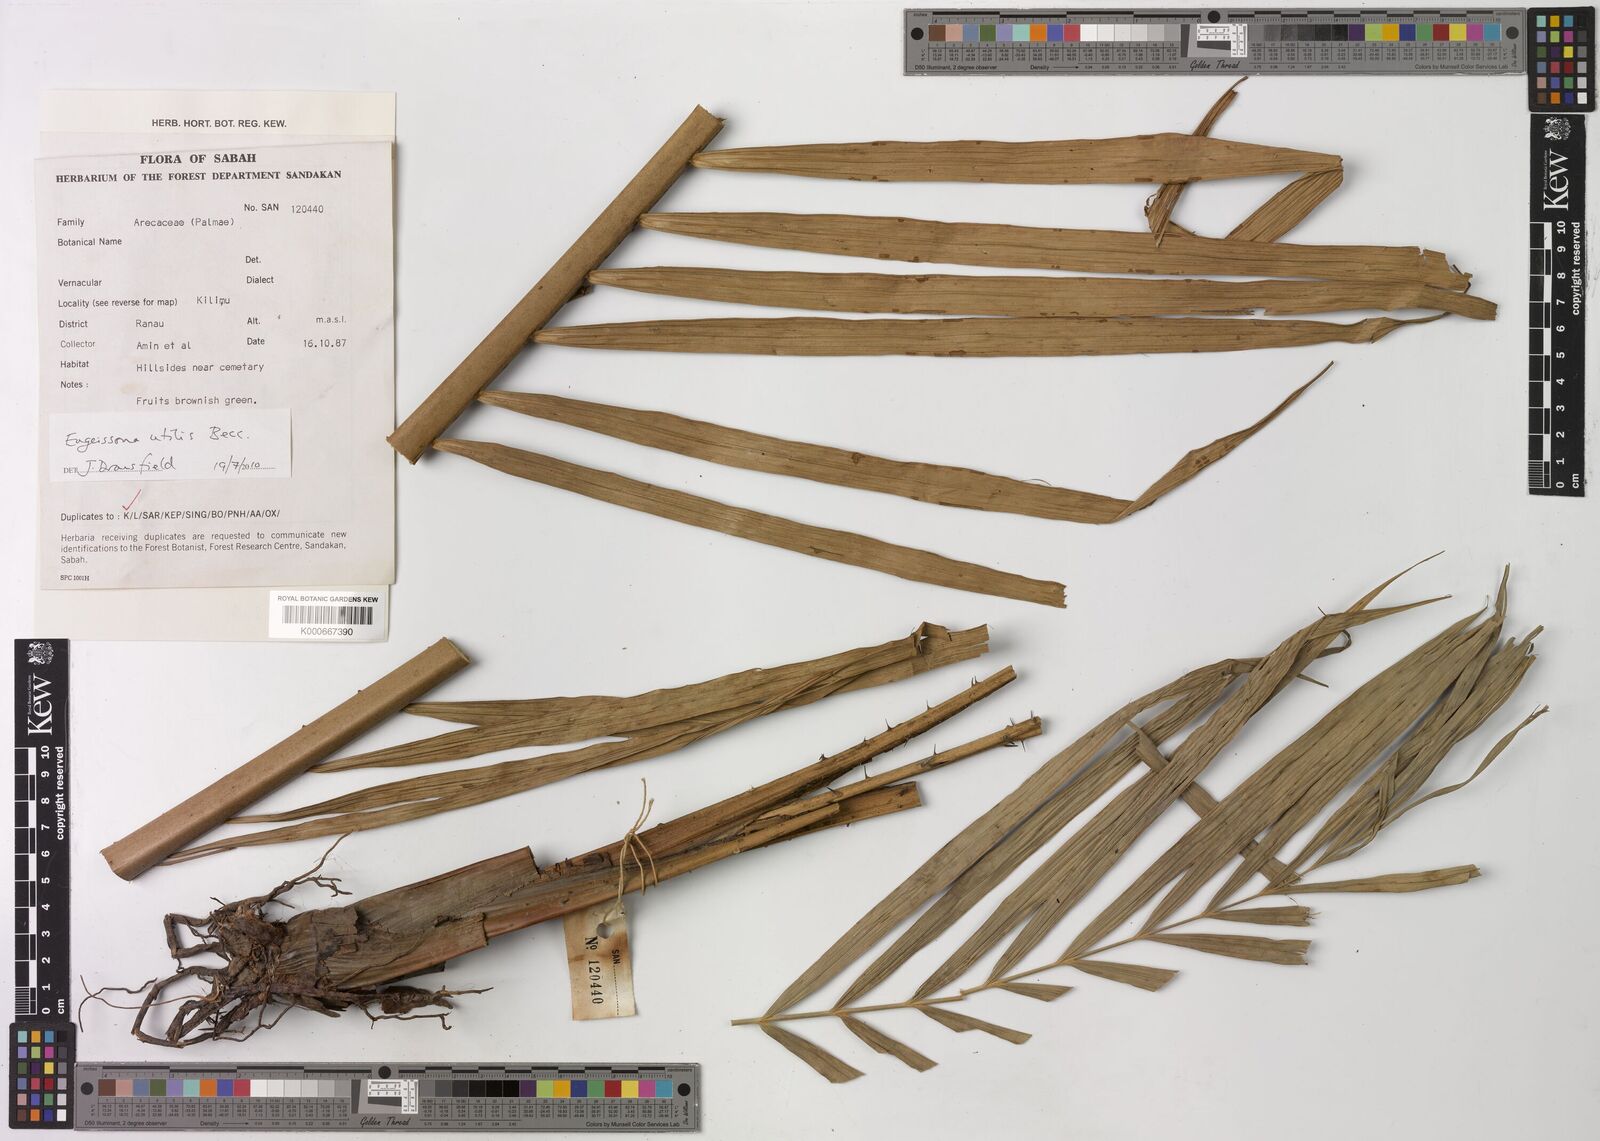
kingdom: Plantae
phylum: Tracheophyta
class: Liliopsida
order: Arecales
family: Arecaceae
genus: Eugeissona
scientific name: Eugeissona utilis
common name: Wild bornean sago palm
